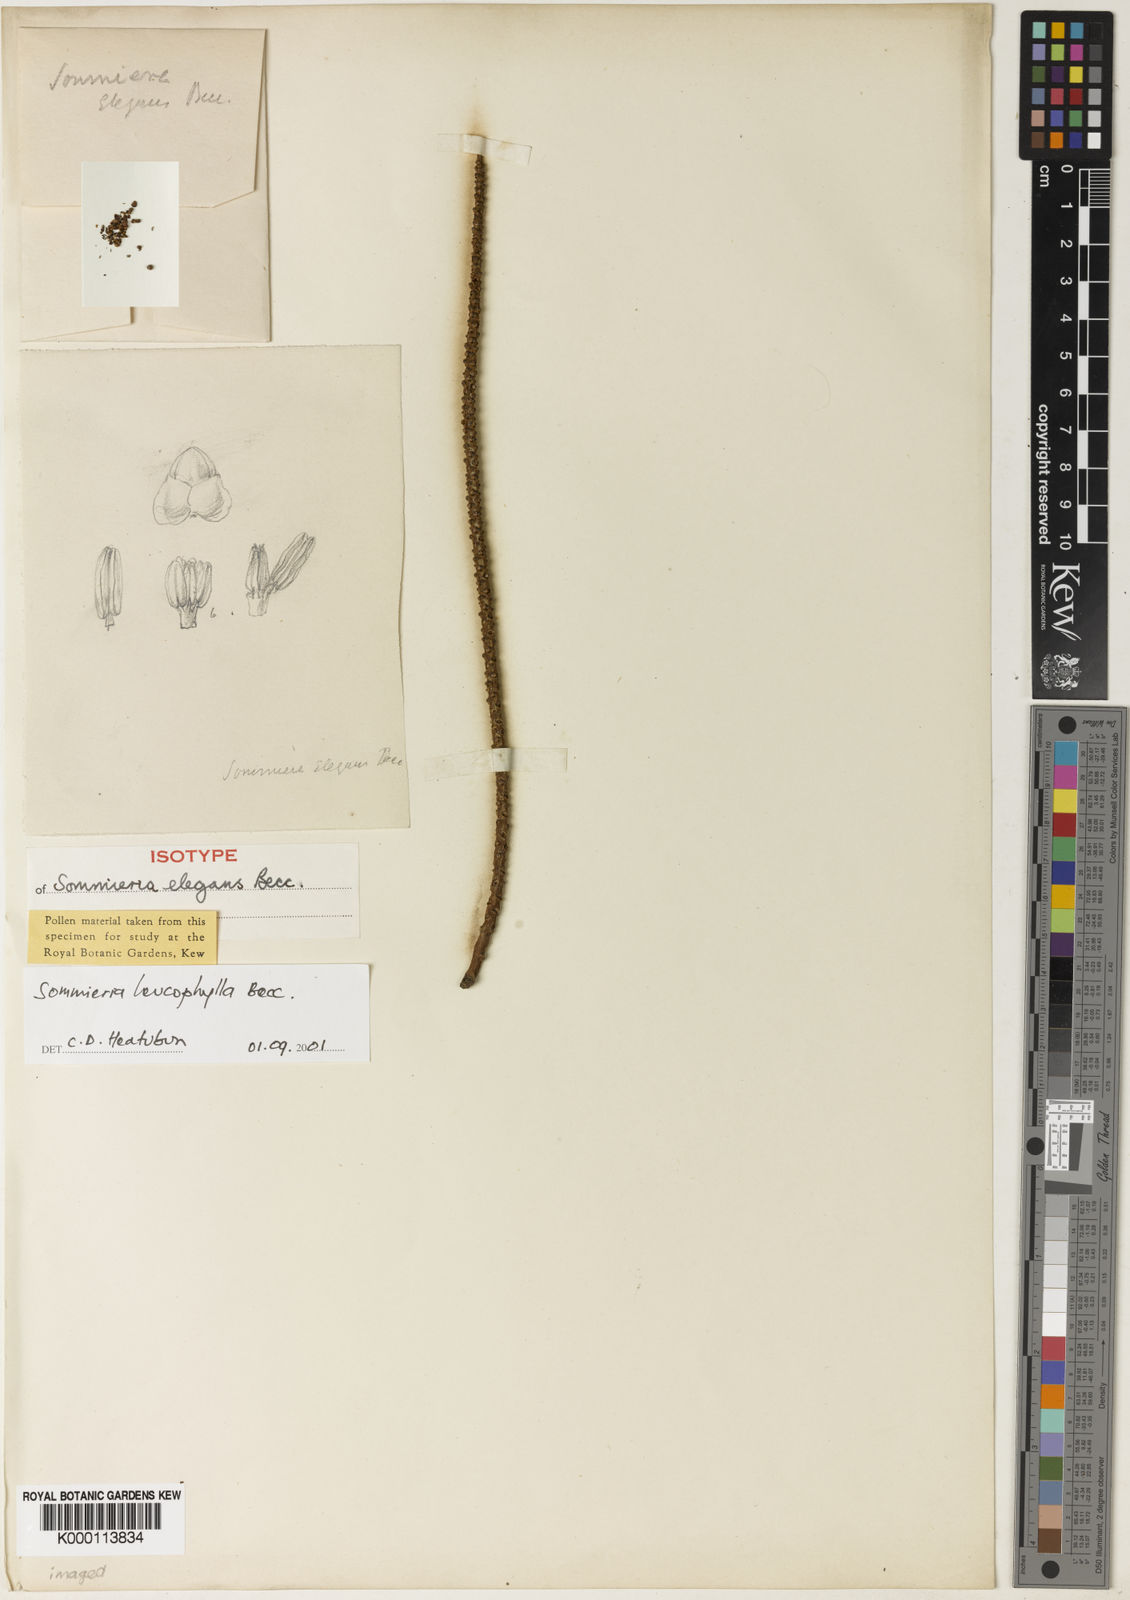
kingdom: Plantae
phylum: Tracheophyta
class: Liliopsida
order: Arecales
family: Arecaceae
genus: Sommieria
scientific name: Sommieria leucophylla
